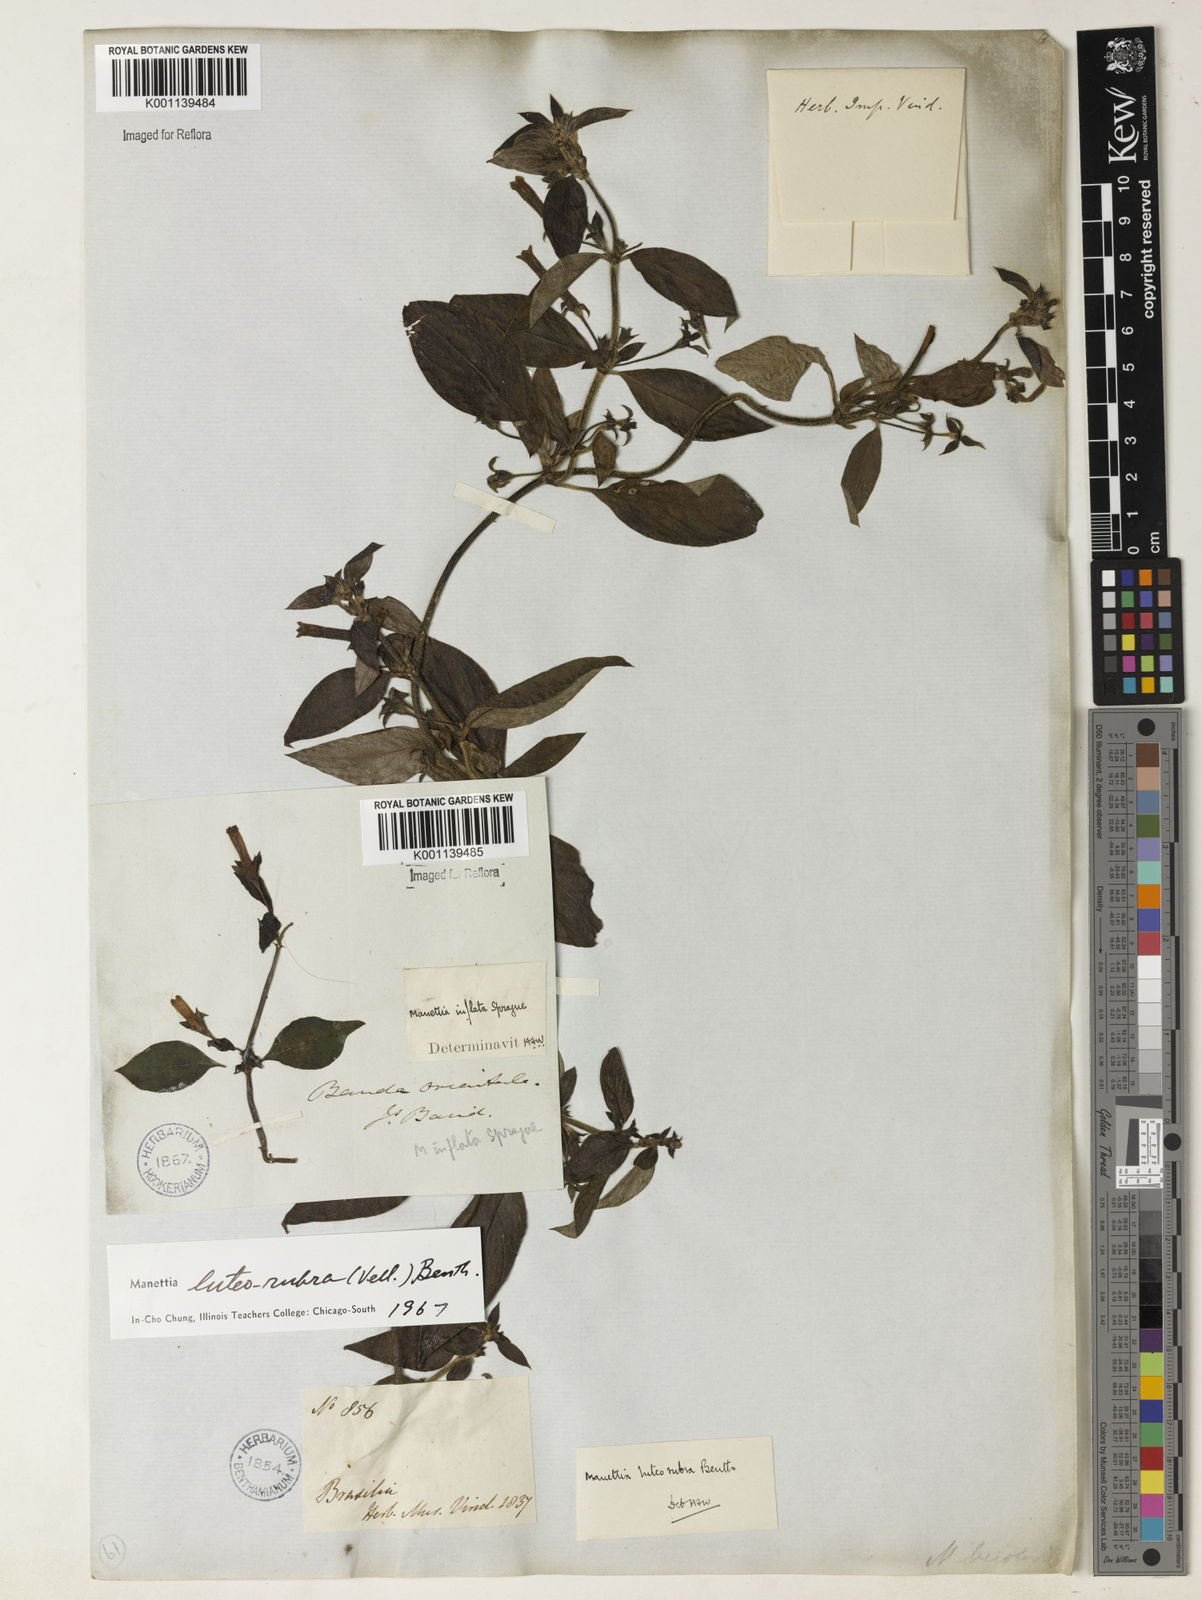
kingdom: Plantae
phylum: Tracheophyta
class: Magnoliopsida
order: Gentianales
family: Rubiaceae
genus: Manettia
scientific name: Manettia luteorubra
